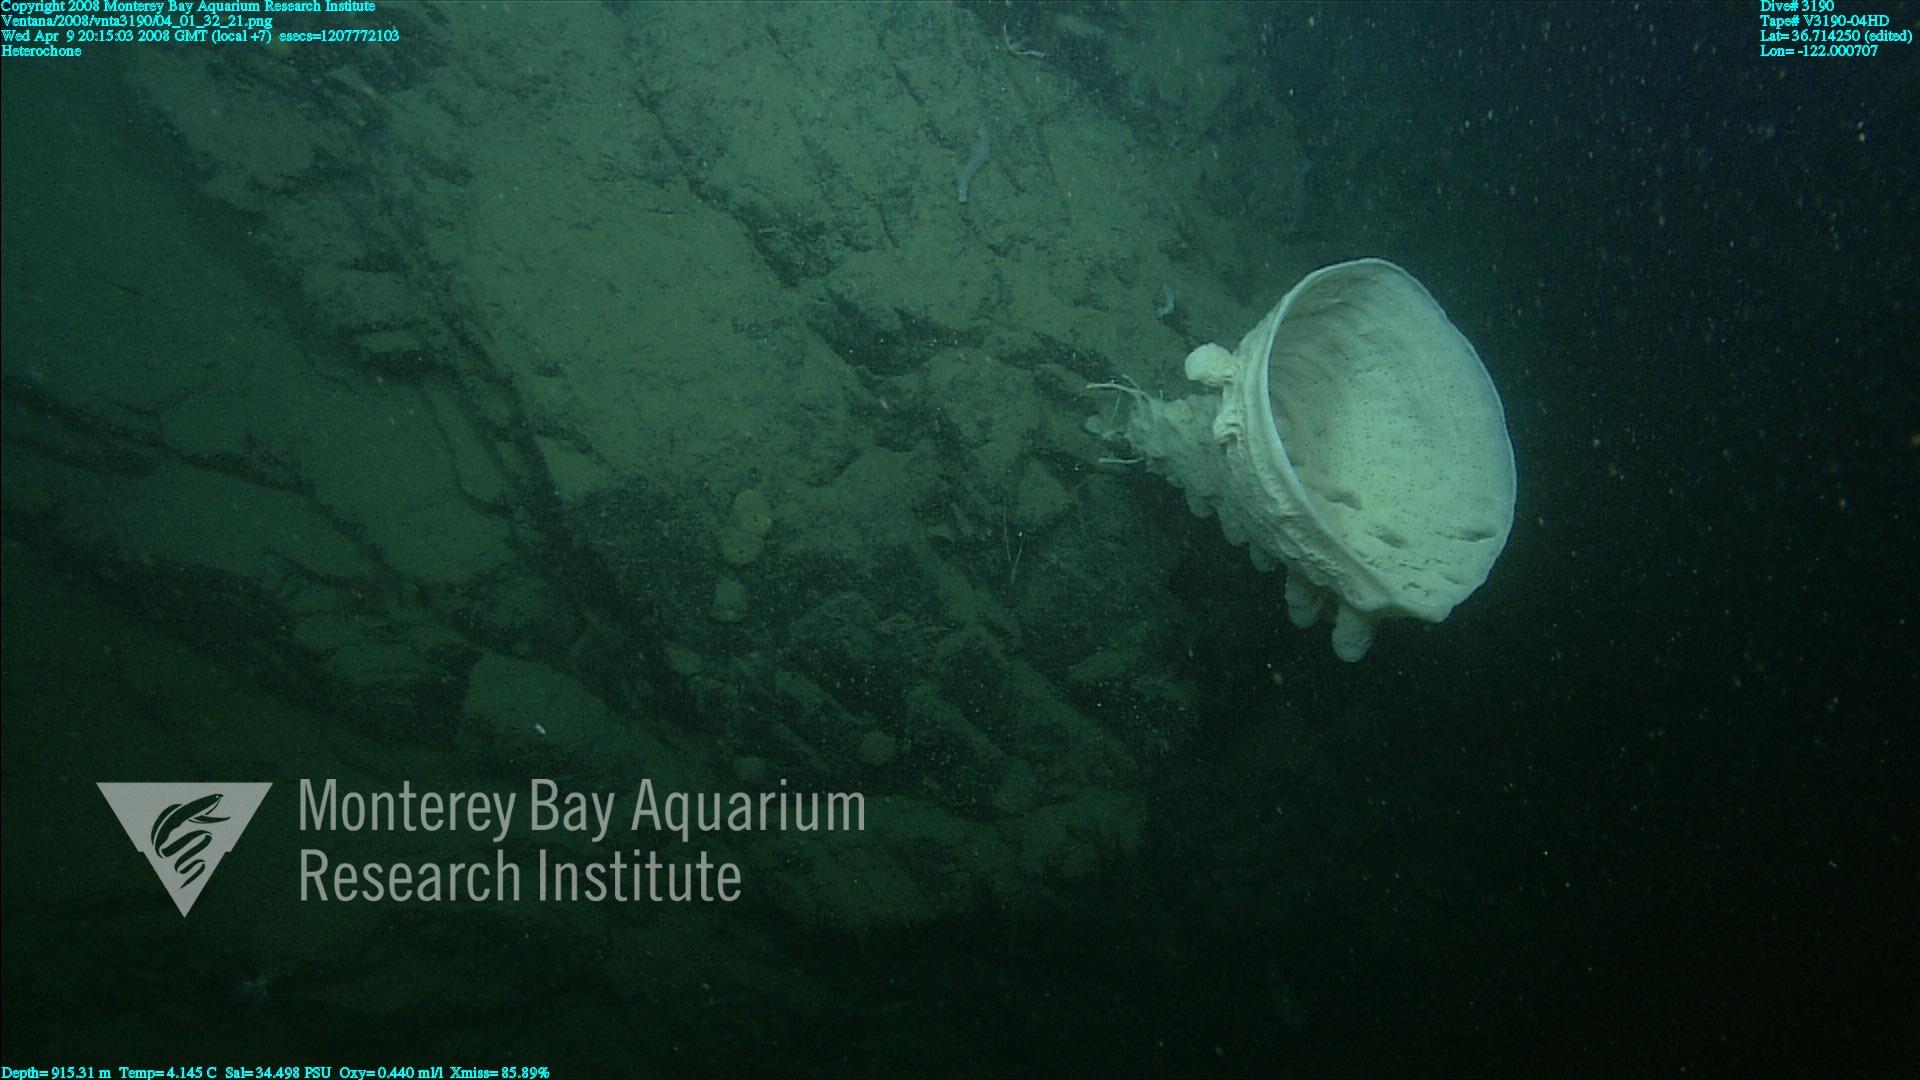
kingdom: Animalia
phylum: Porifera
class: Hexactinellida
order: Sceptrulophora
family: Aphrocallistidae
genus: Heterochone
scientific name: Heterochone
